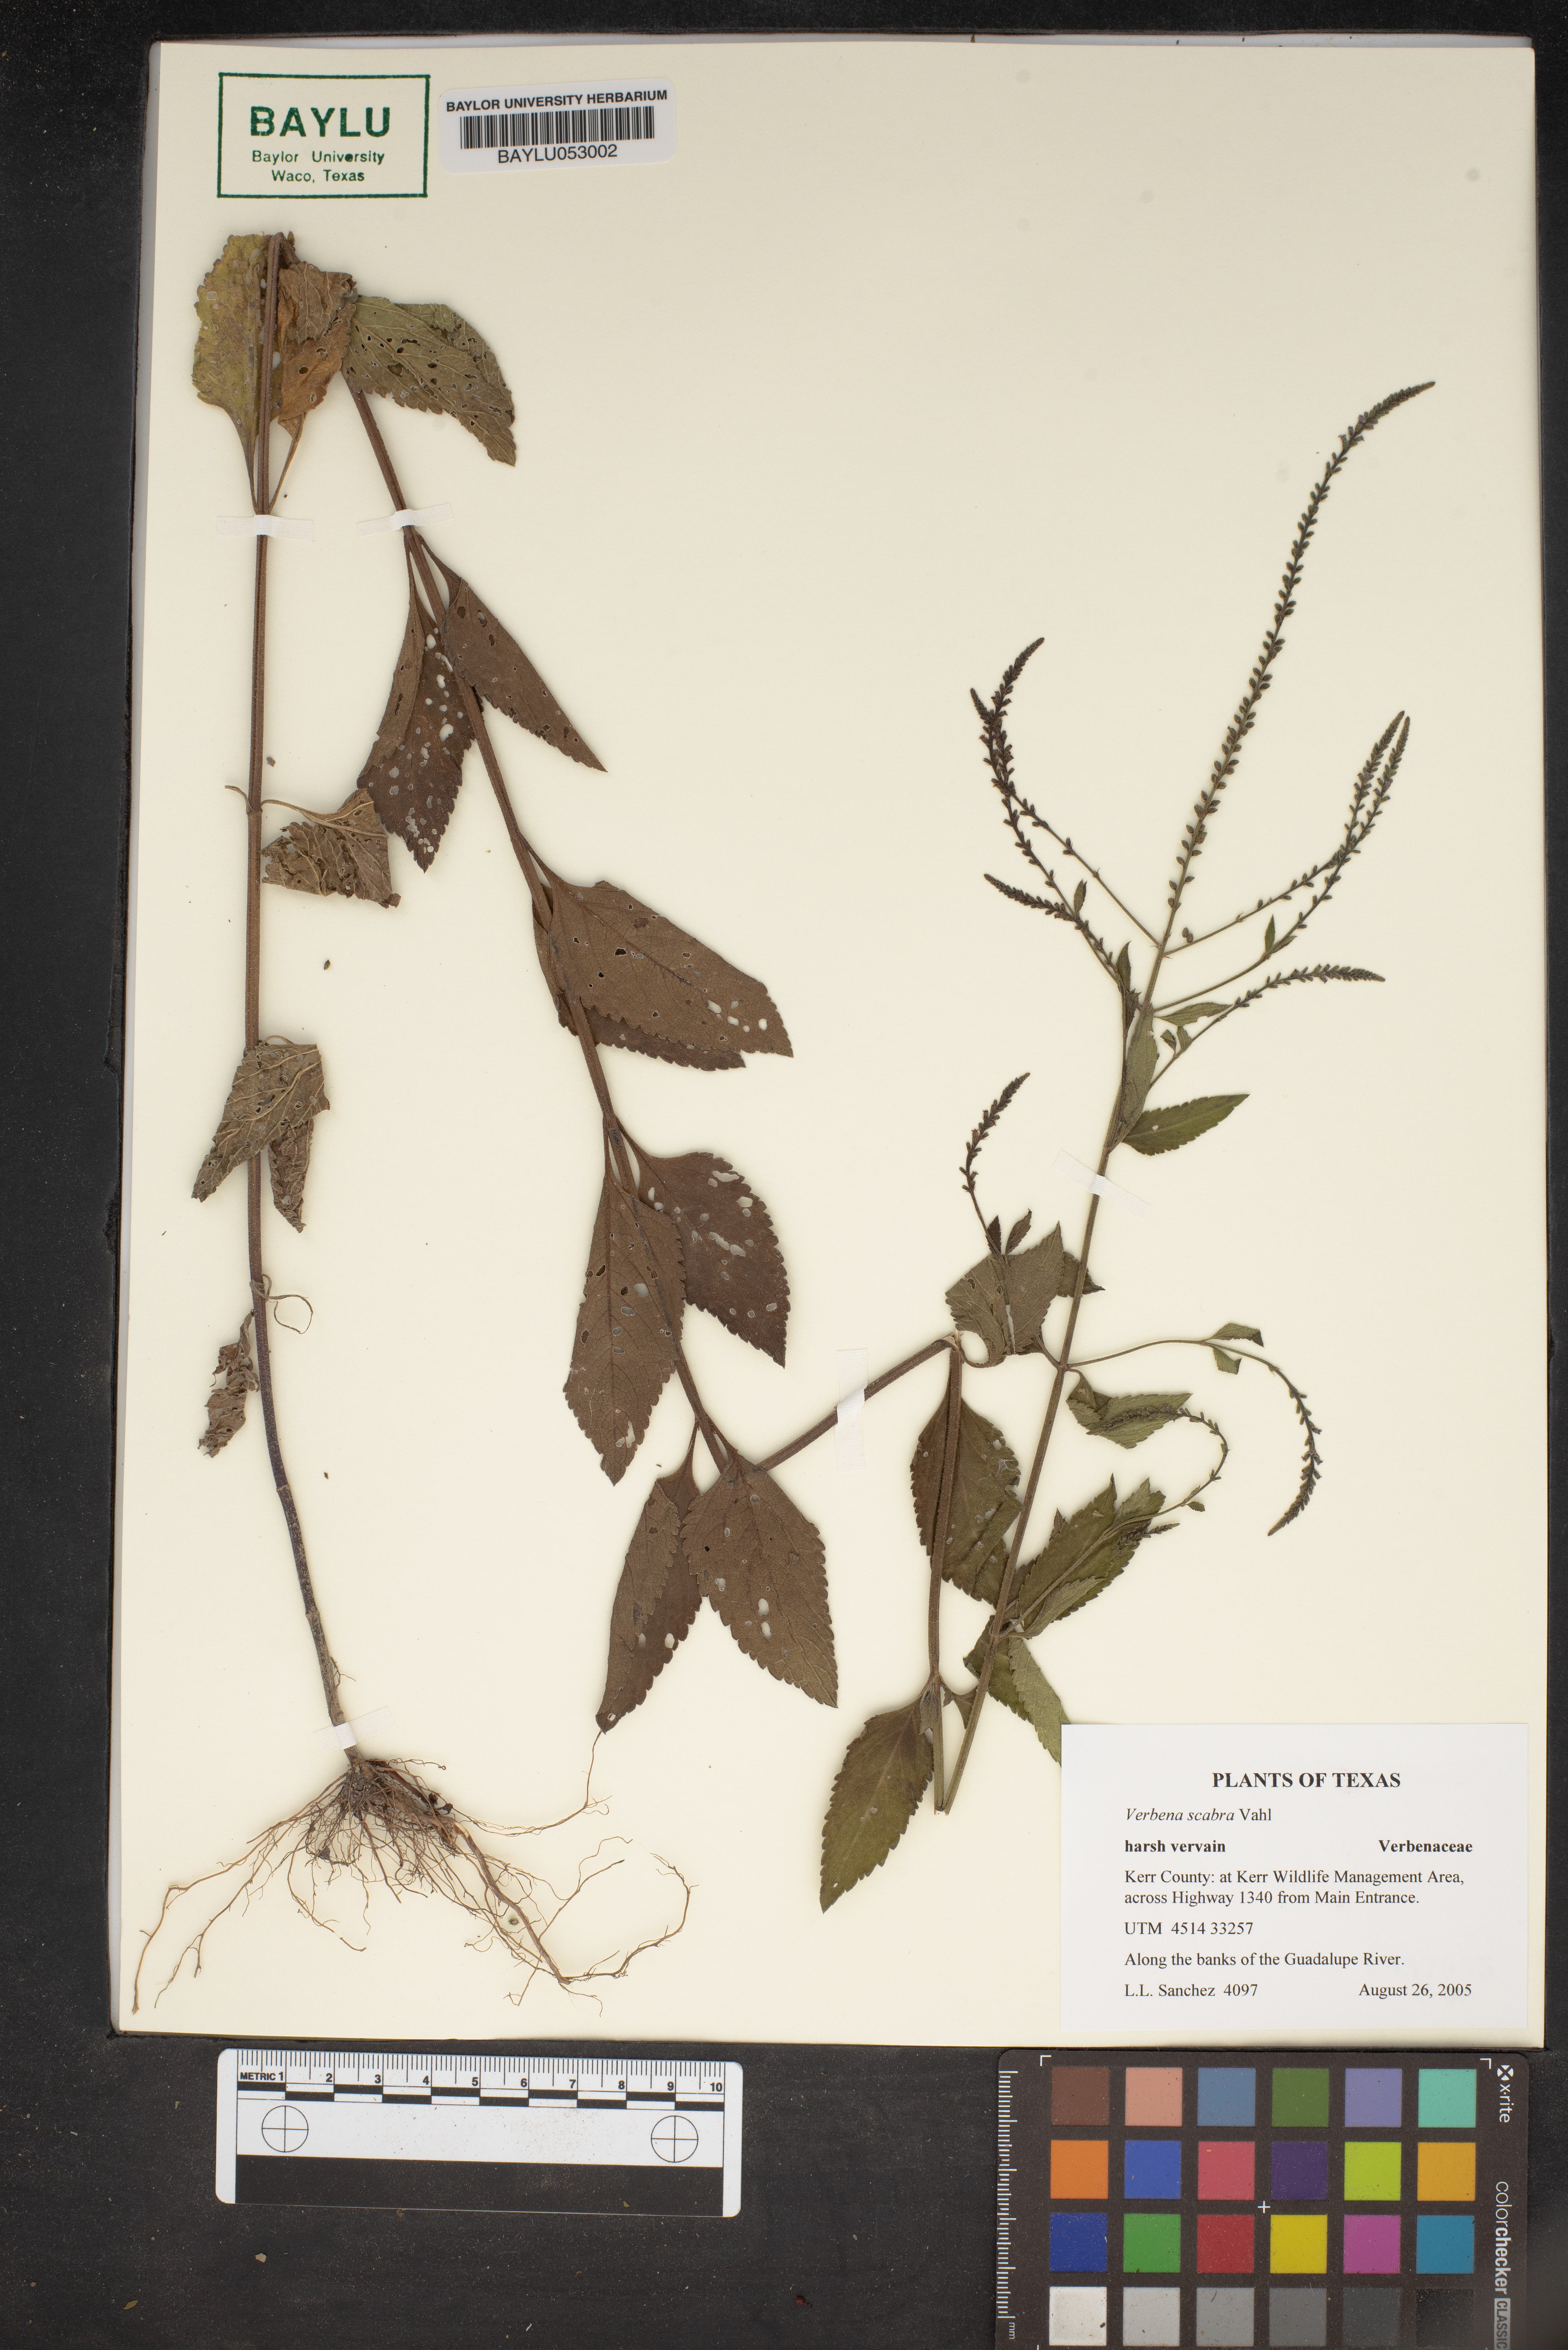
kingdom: Plantae
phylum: Tracheophyta
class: Magnoliopsida
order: Lamiales
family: Verbenaceae
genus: Verbena
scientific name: Verbena scabra
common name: Sandpaper vervain
